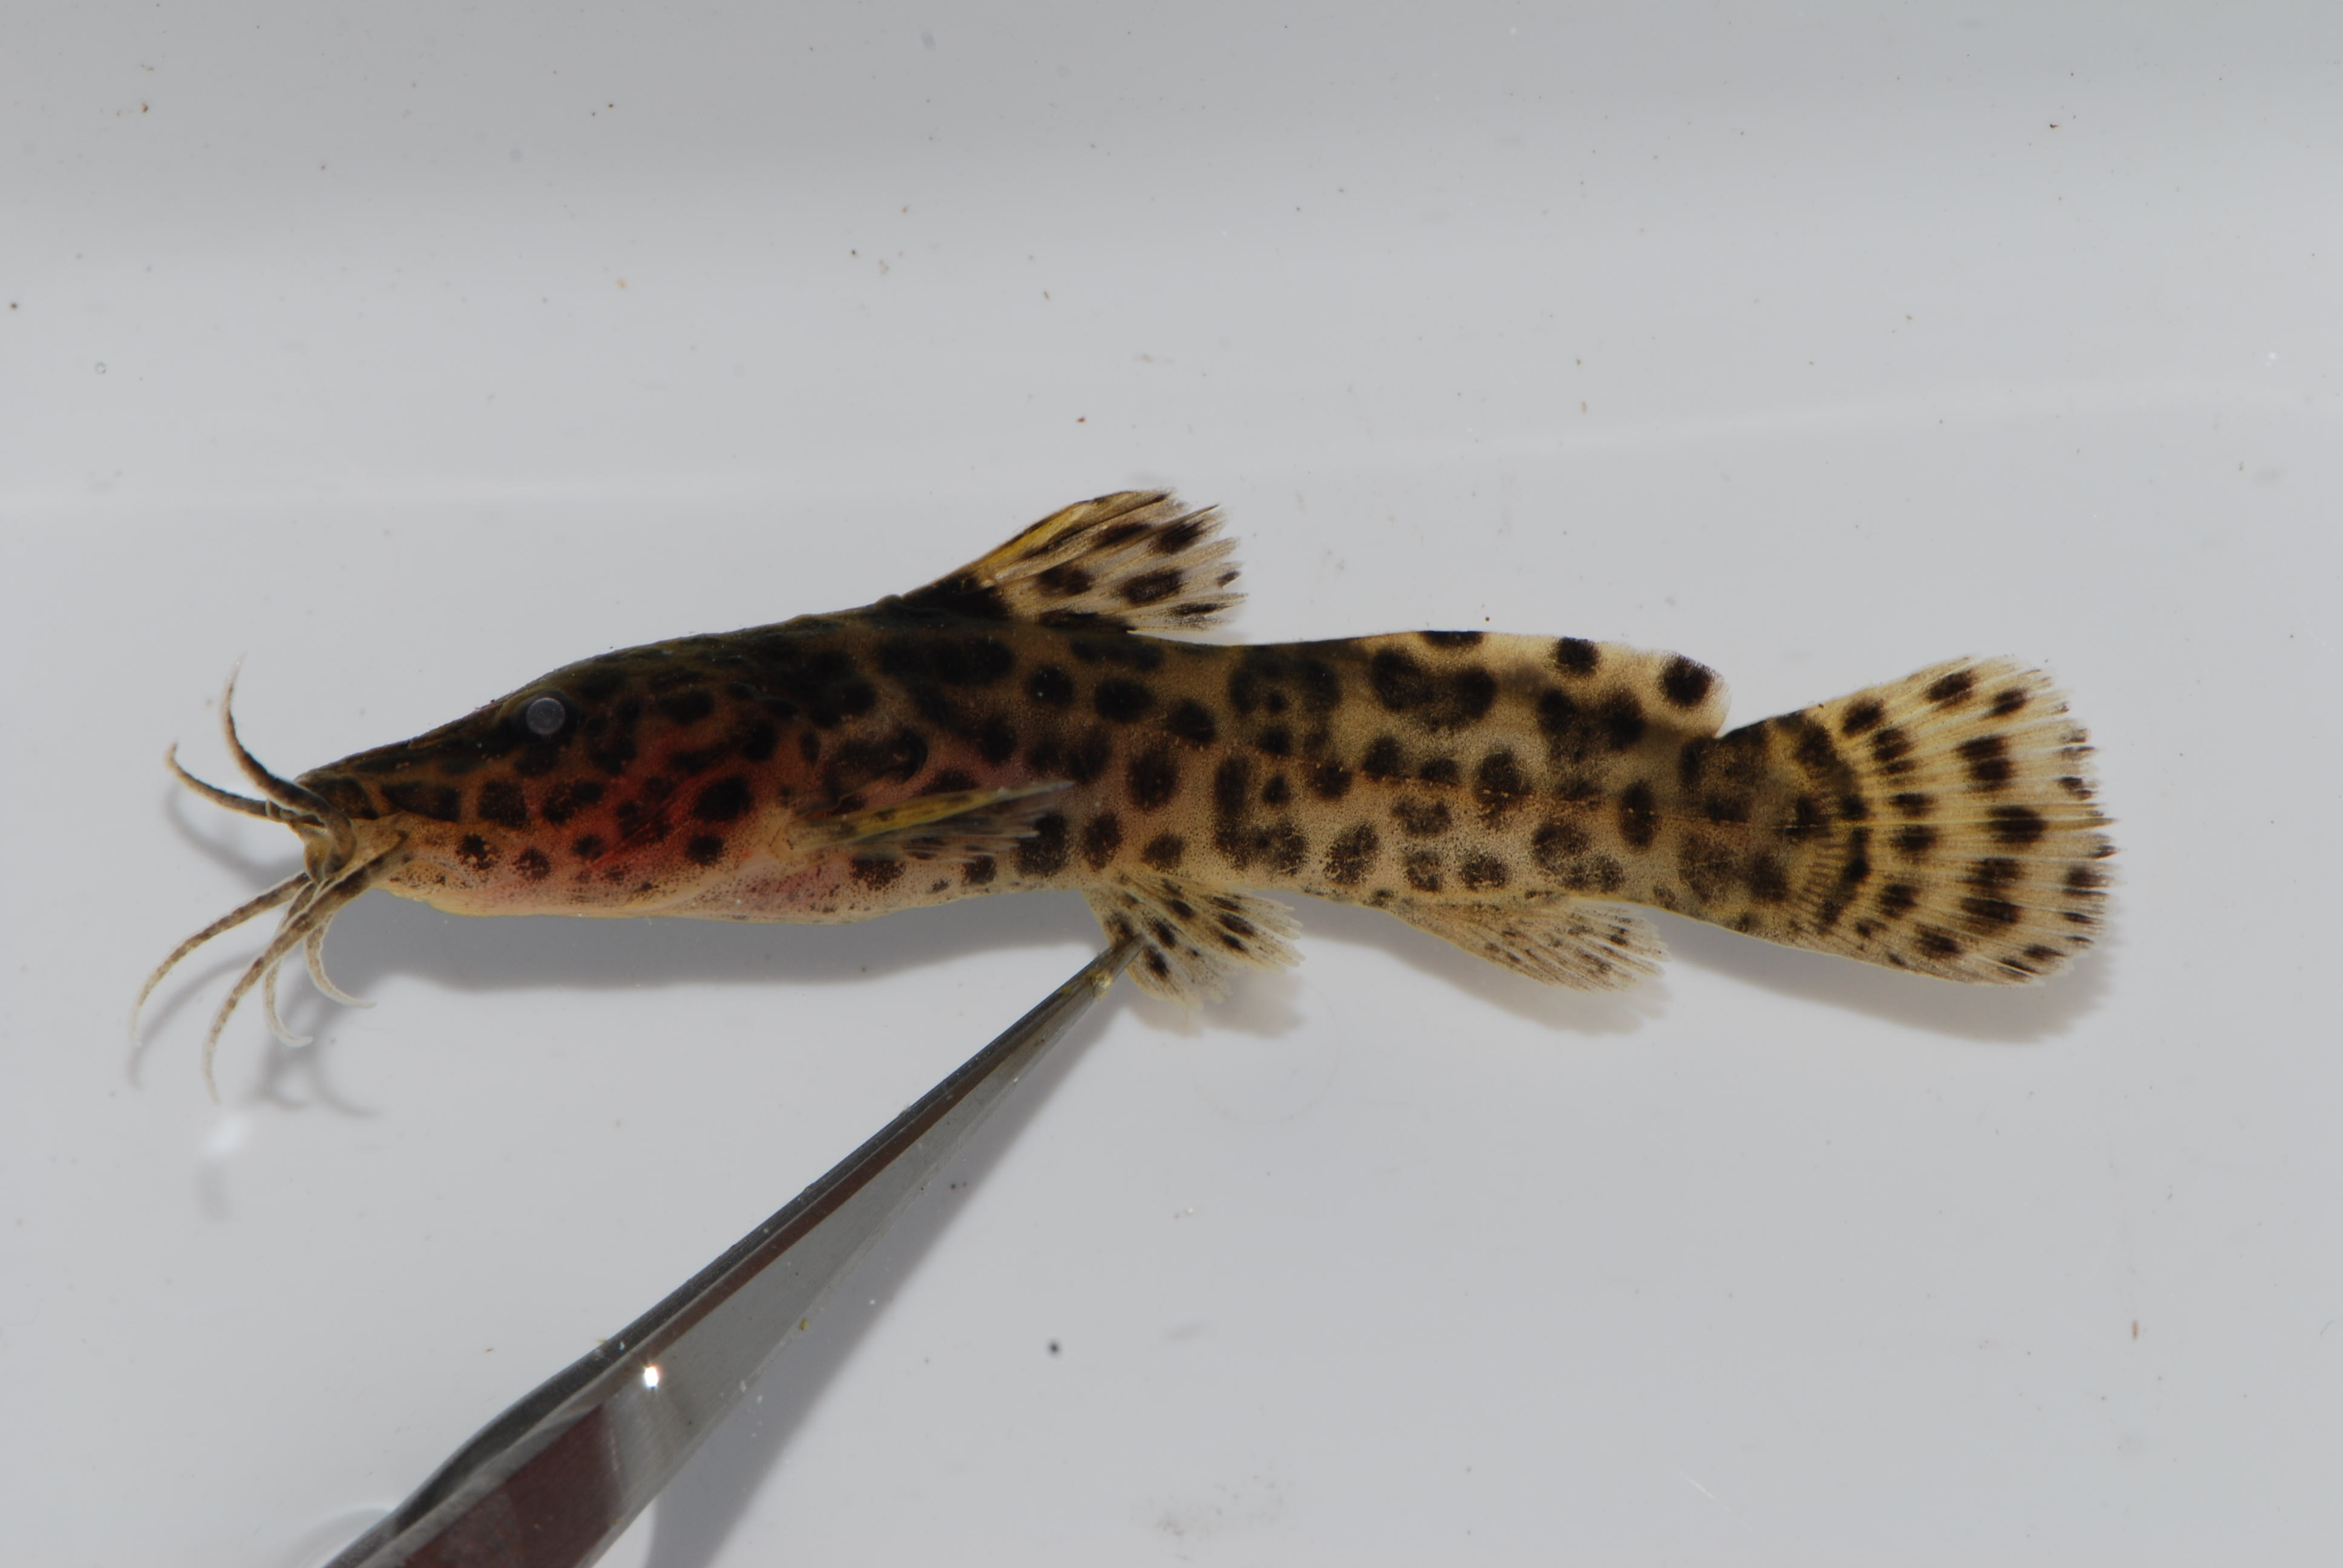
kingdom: Animalia
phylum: Chordata
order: Siluriformes
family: Claroteidae
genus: Parauchenoglanis
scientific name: Parauchenoglanis ngamensis
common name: Zambezi grunter
